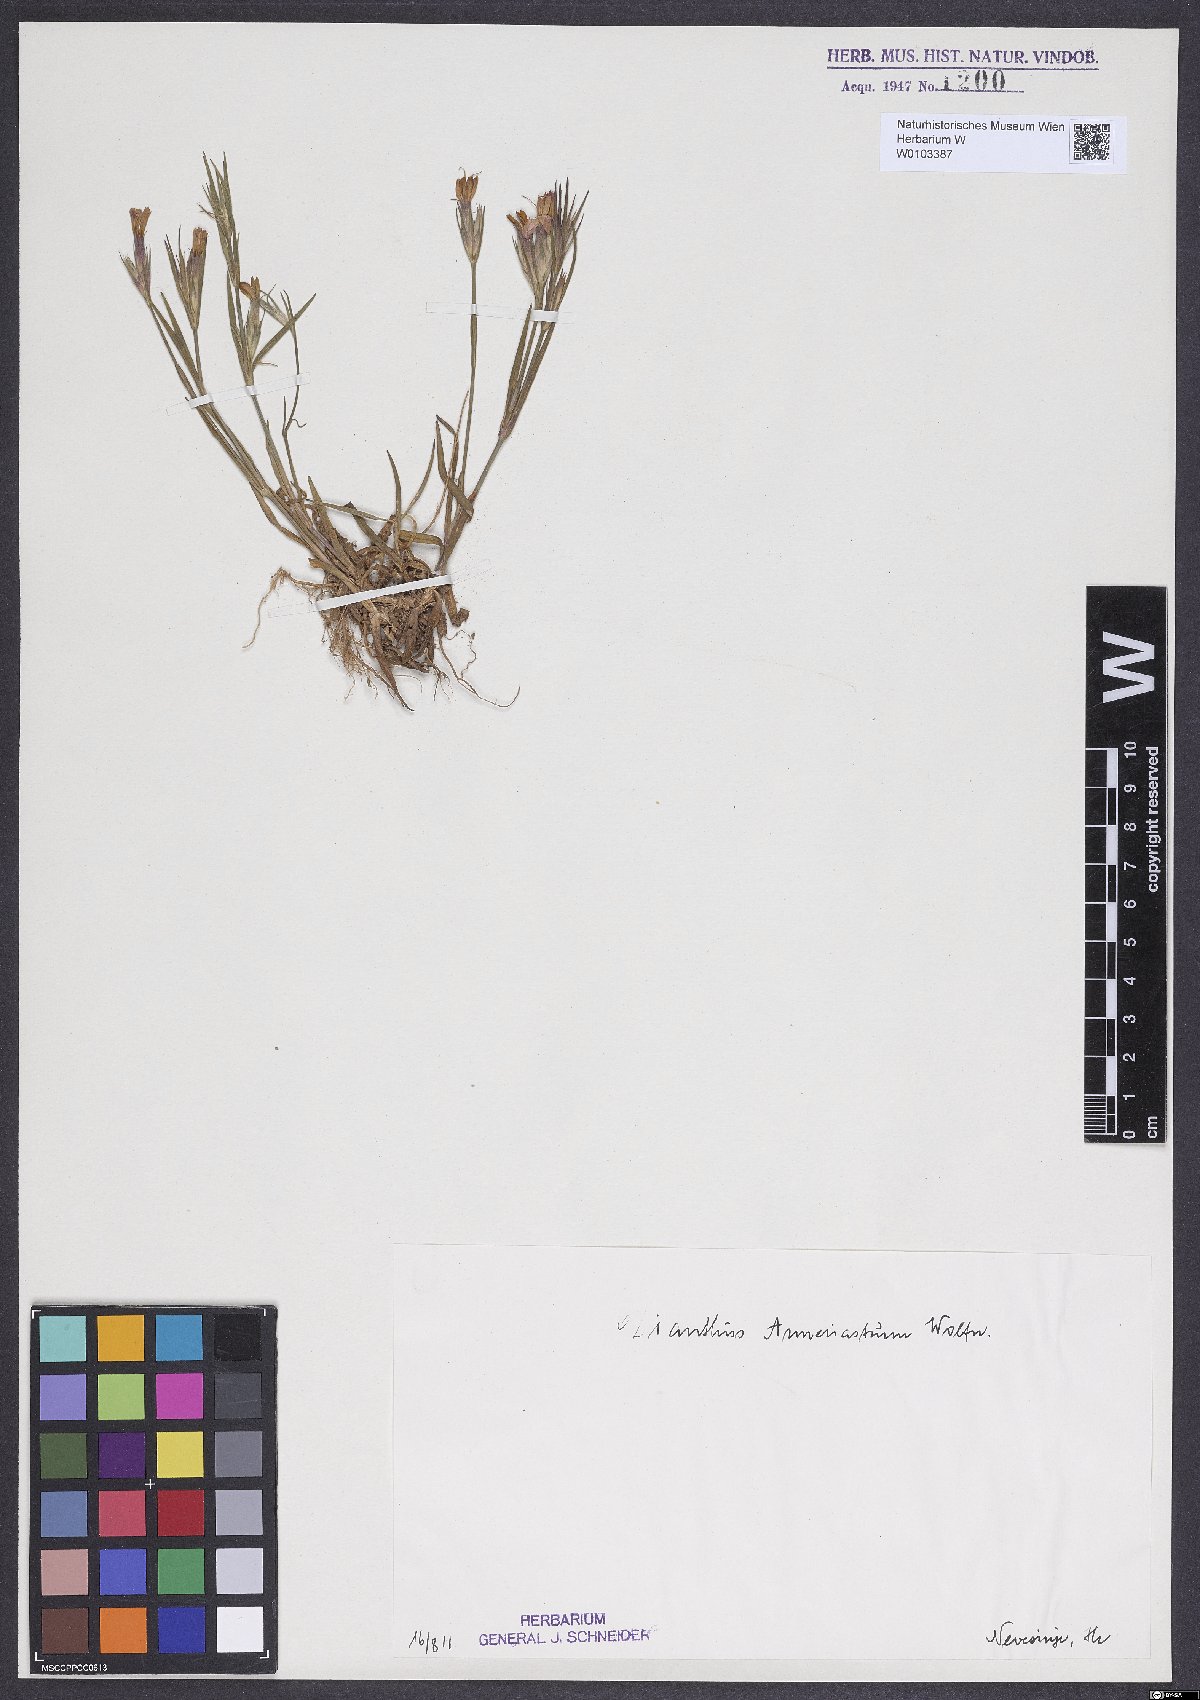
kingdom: Plantae
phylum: Tracheophyta
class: Magnoliopsida
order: Caryophyllales
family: Caryophyllaceae
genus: Dianthus
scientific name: Dianthus corymbosus
